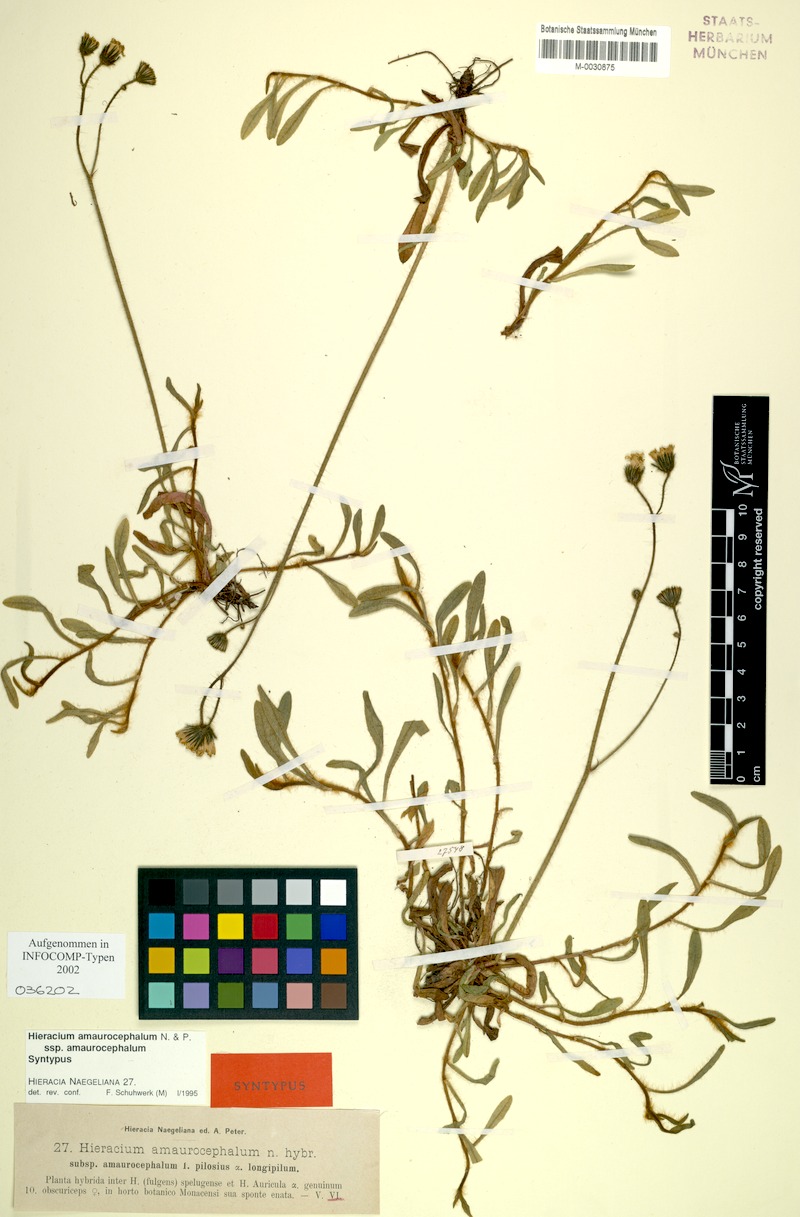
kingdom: Plantae
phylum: Tracheophyta
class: Magnoliopsida
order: Asterales
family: Asteraceae
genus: Pilosella
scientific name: Pilosella amaurocephala
